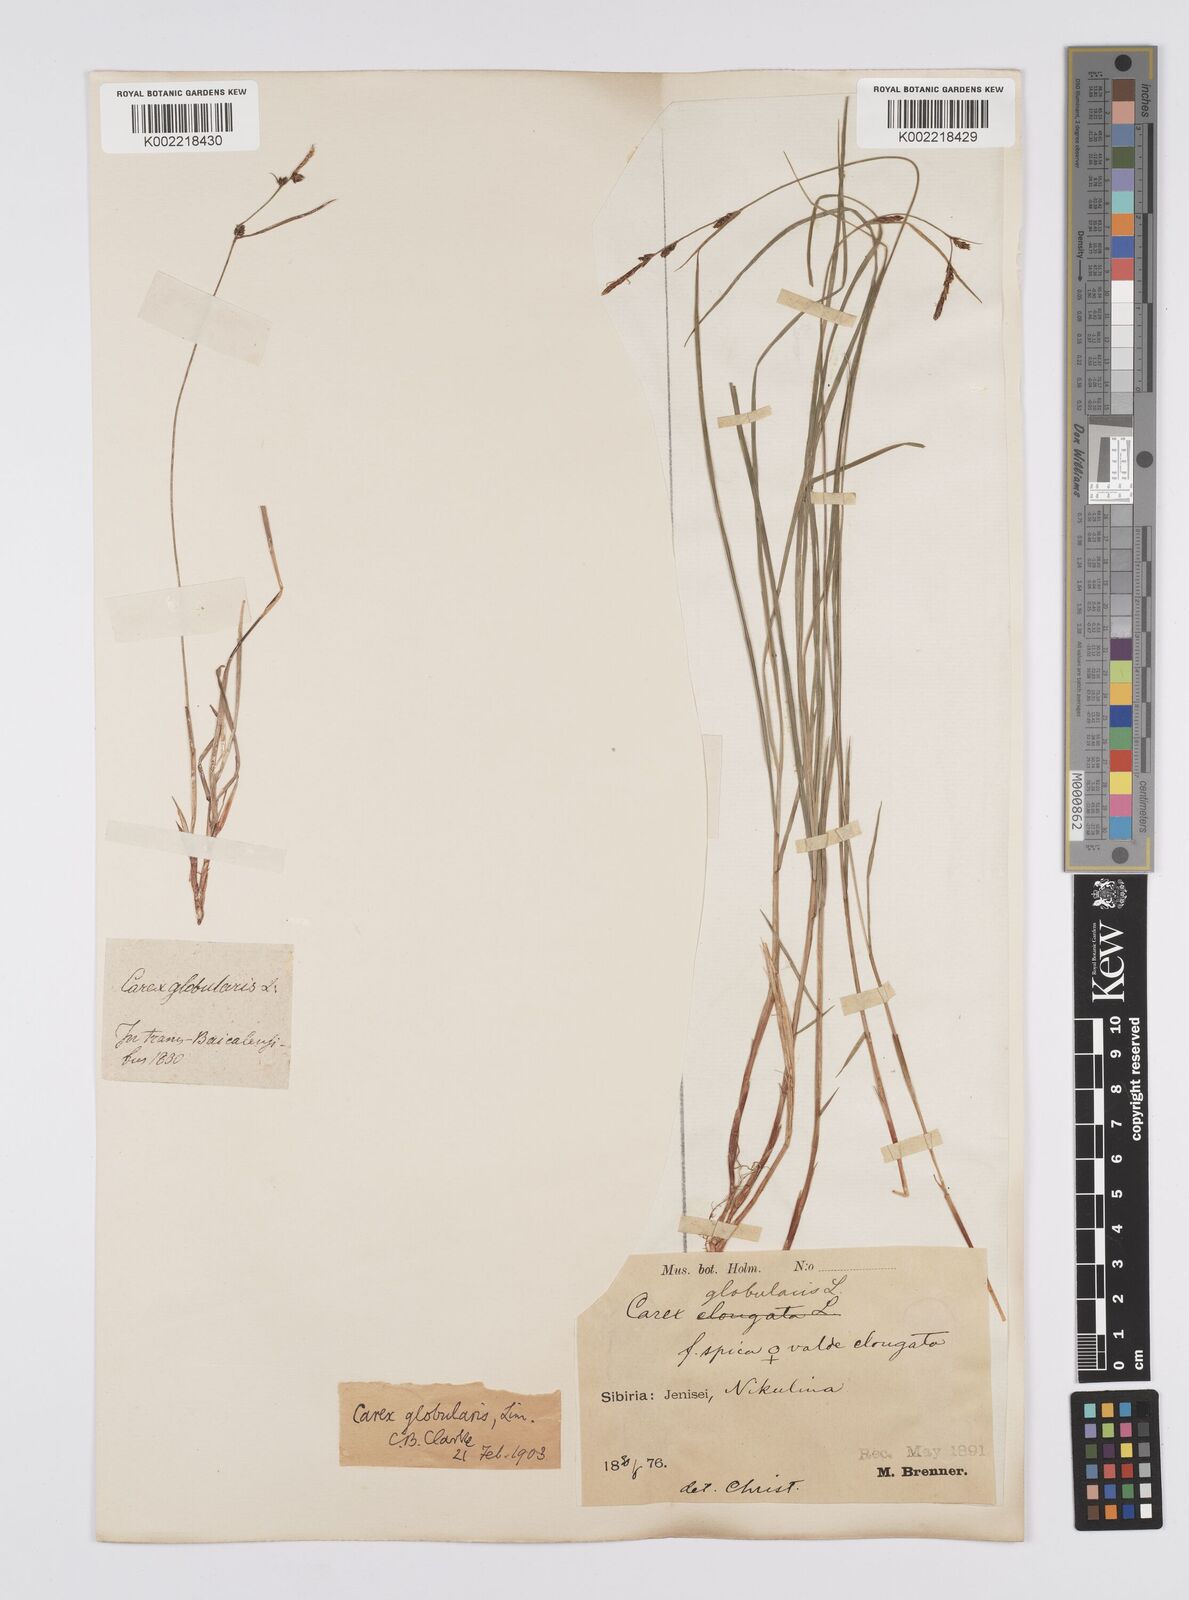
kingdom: Plantae
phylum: Tracheophyta
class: Liliopsida
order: Poales
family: Cyperaceae
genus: Carex
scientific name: Carex globularis
